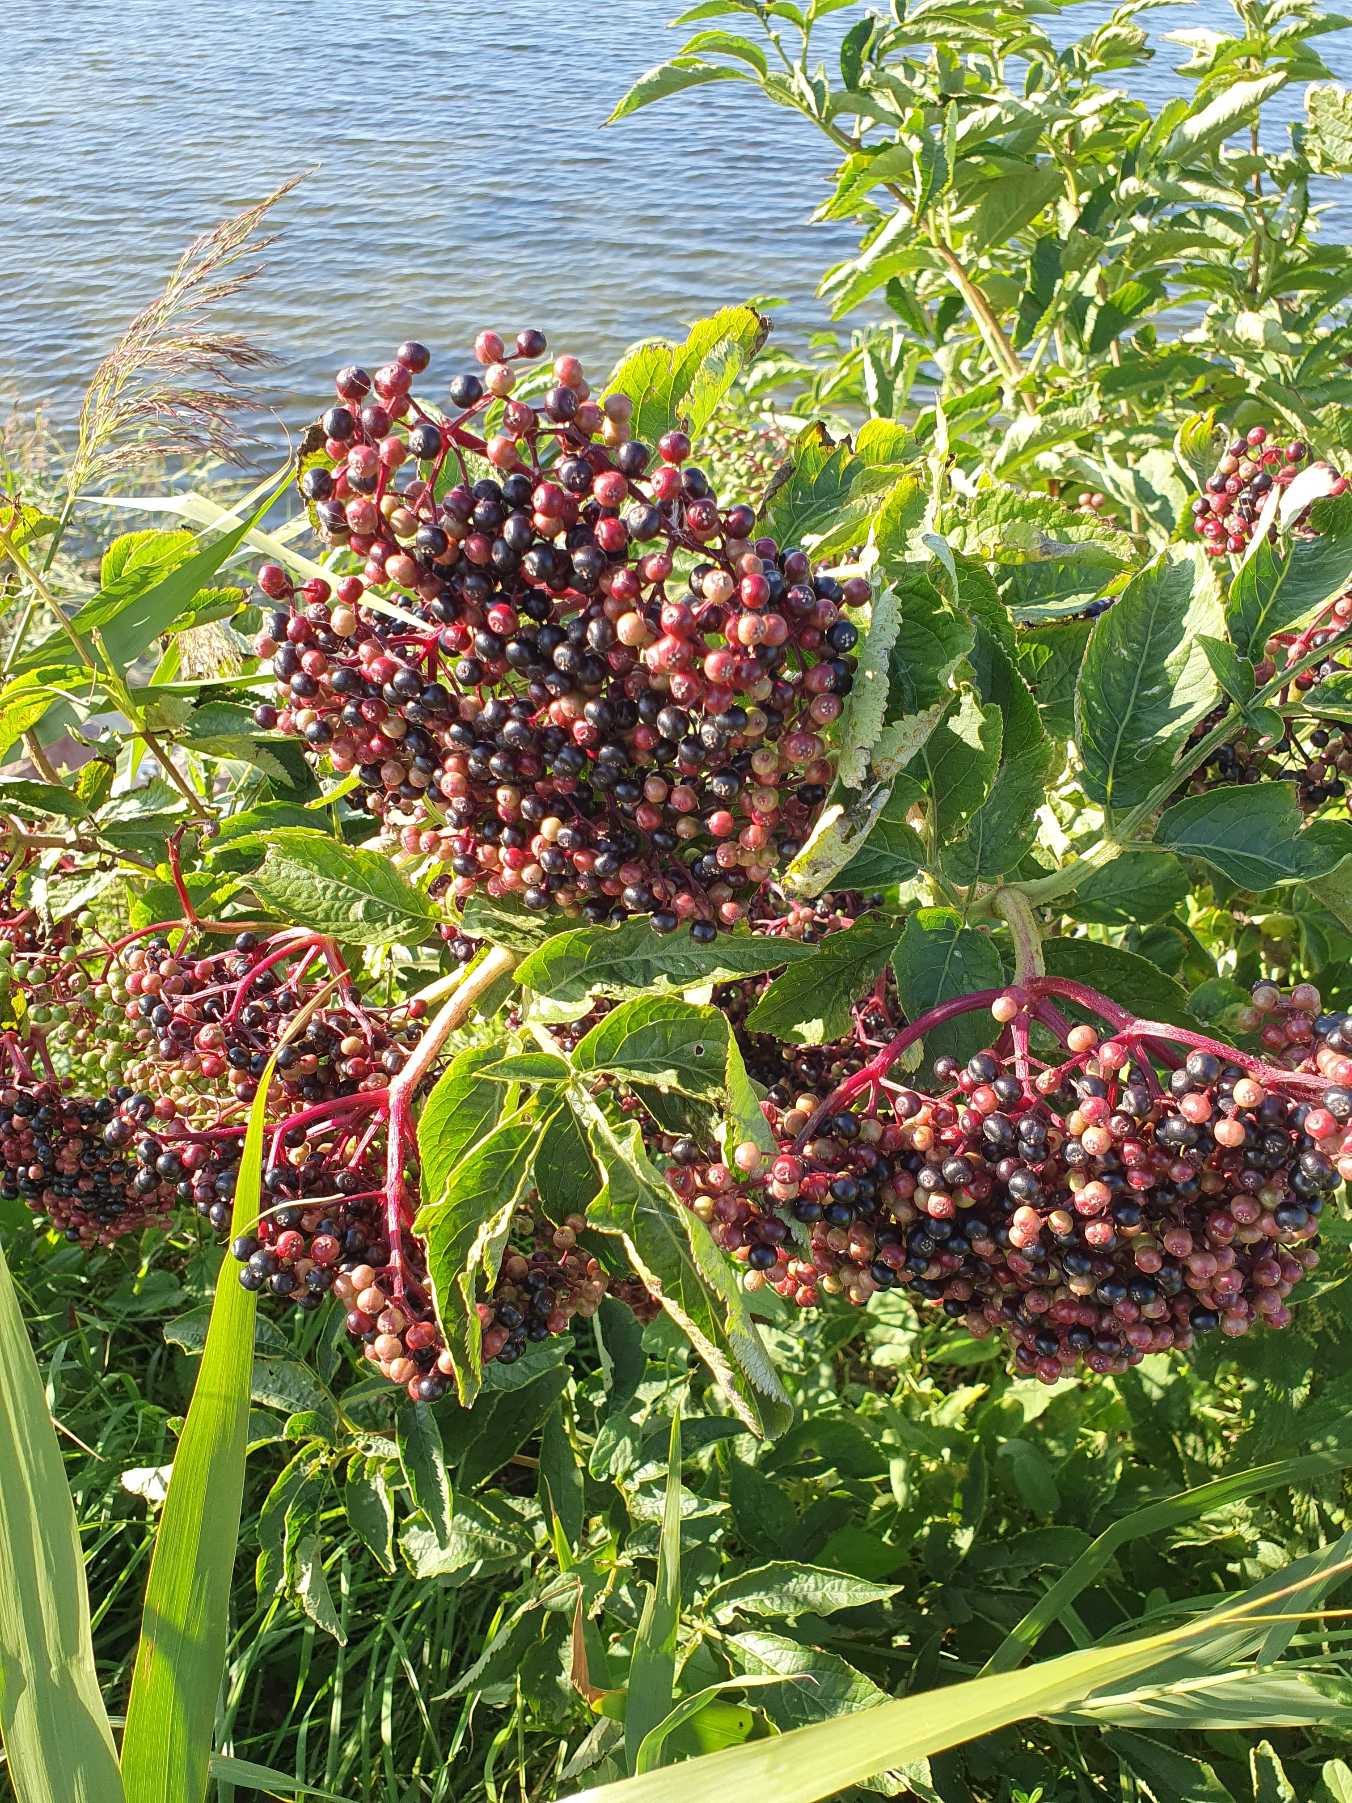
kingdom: Plantae
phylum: Tracheophyta
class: Magnoliopsida
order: Dipsacales
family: Viburnaceae
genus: Sambucus
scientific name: Sambucus nigra
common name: Almindelig hyld
